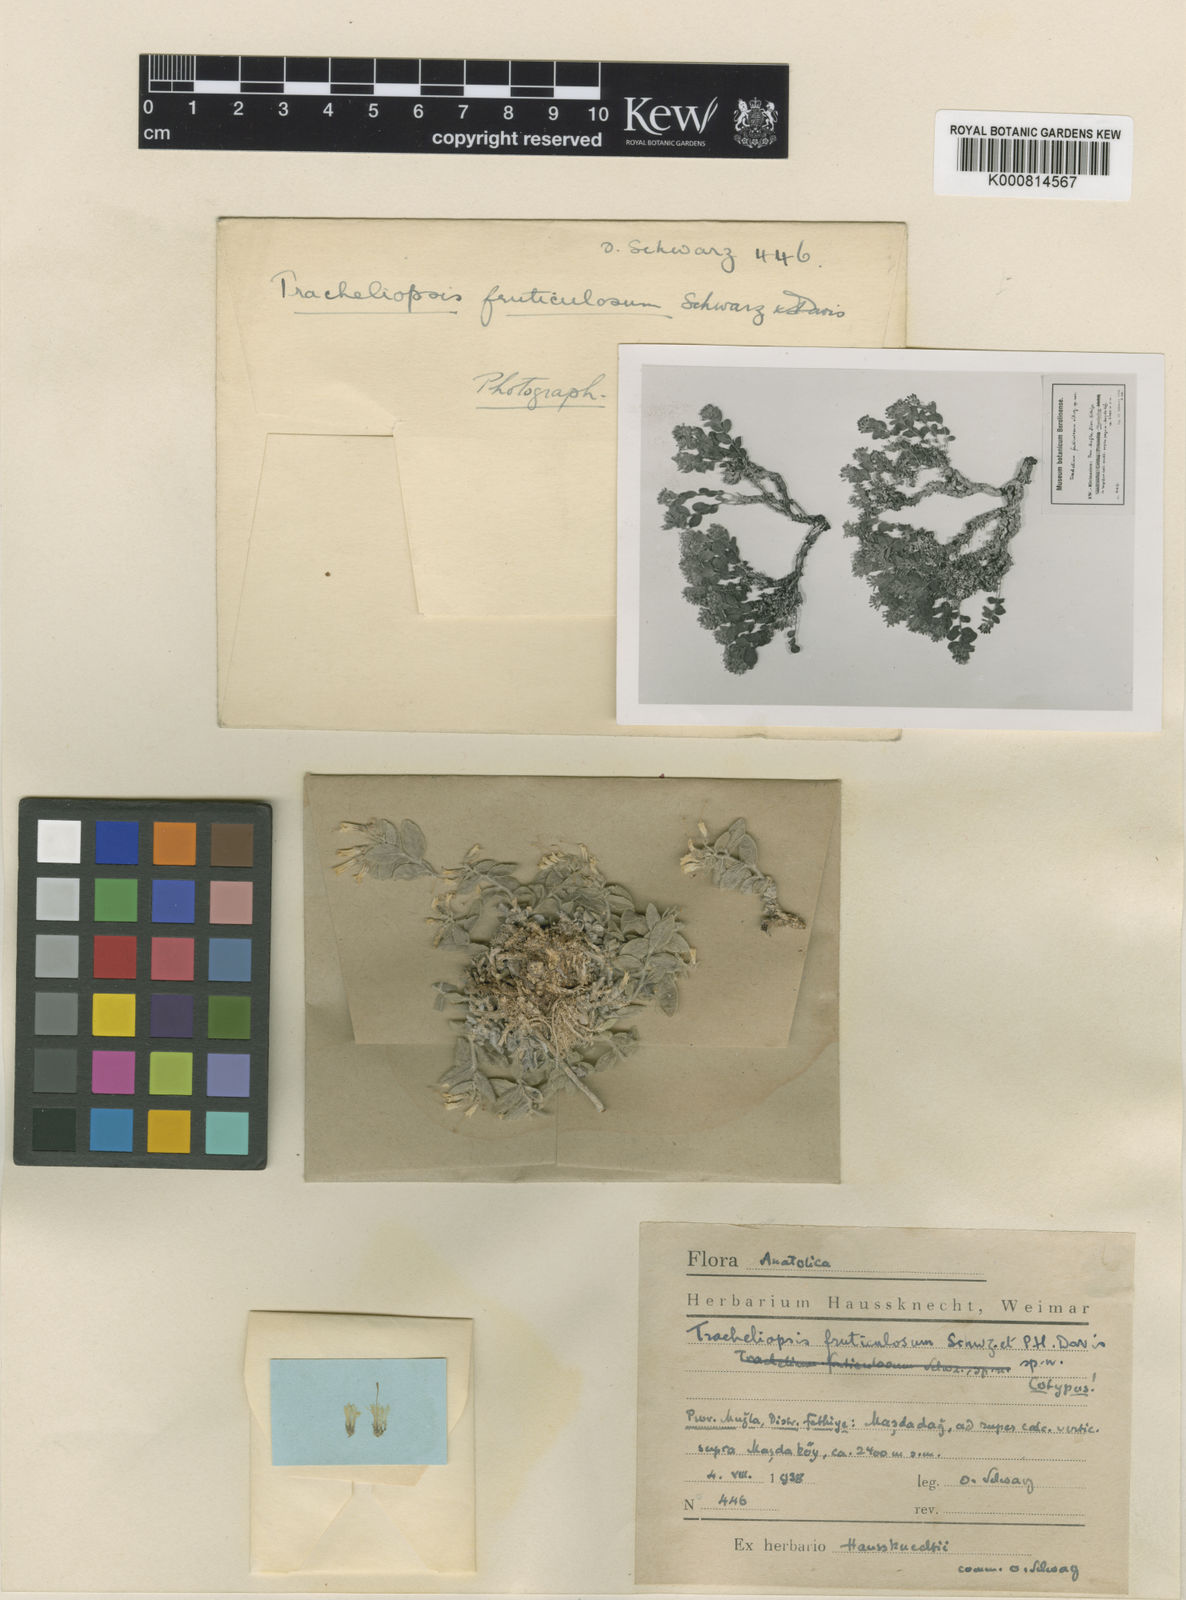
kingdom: Plantae
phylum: Tracheophyta
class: Magnoliopsida
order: Asterales
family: Campanulaceae
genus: Campanula
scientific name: Campanula fruticulosa
